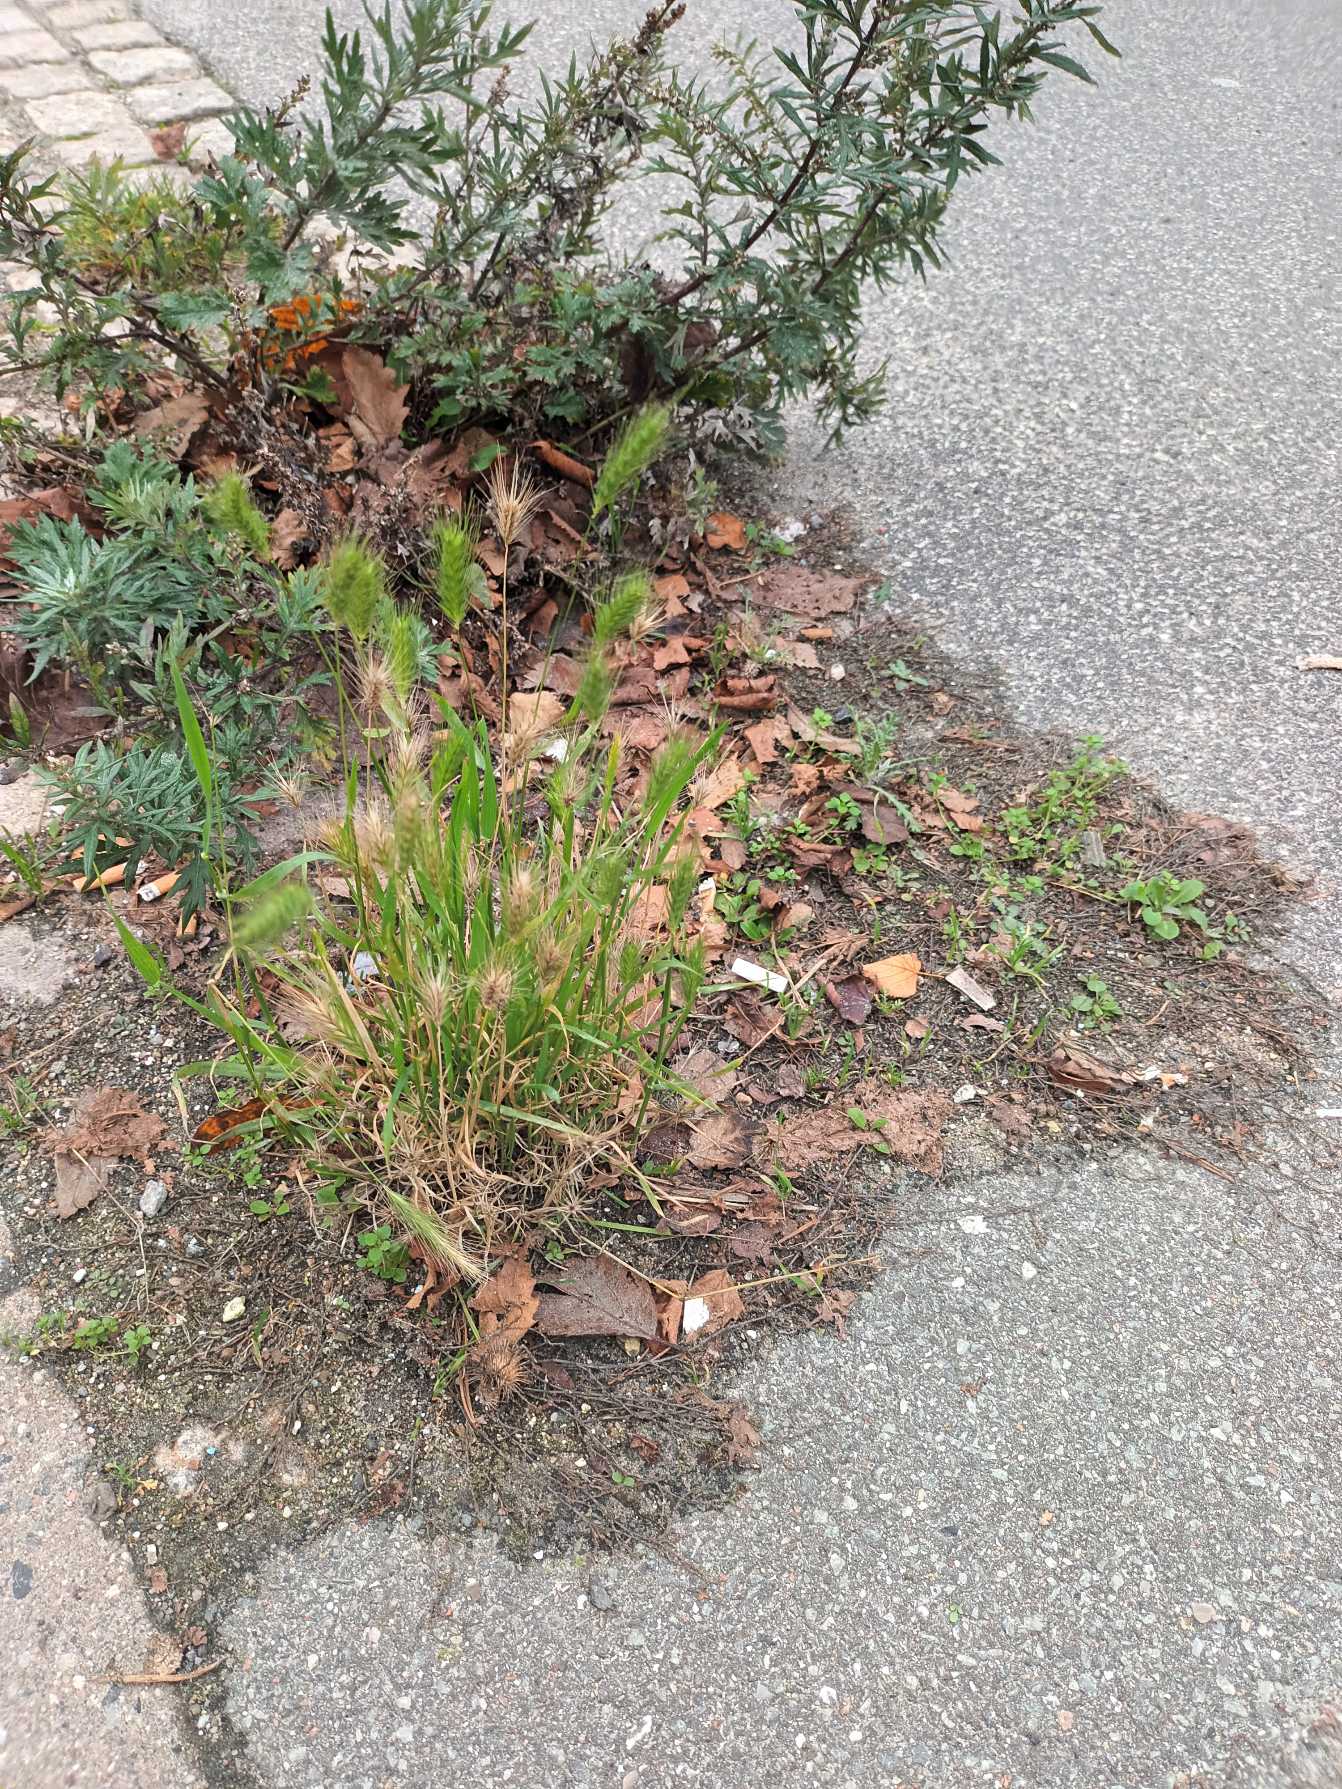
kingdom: Plantae
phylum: Tracheophyta
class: Liliopsida
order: Poales
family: Poaceae
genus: Hordeum
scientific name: Hordeum murinum
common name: Gold byg
